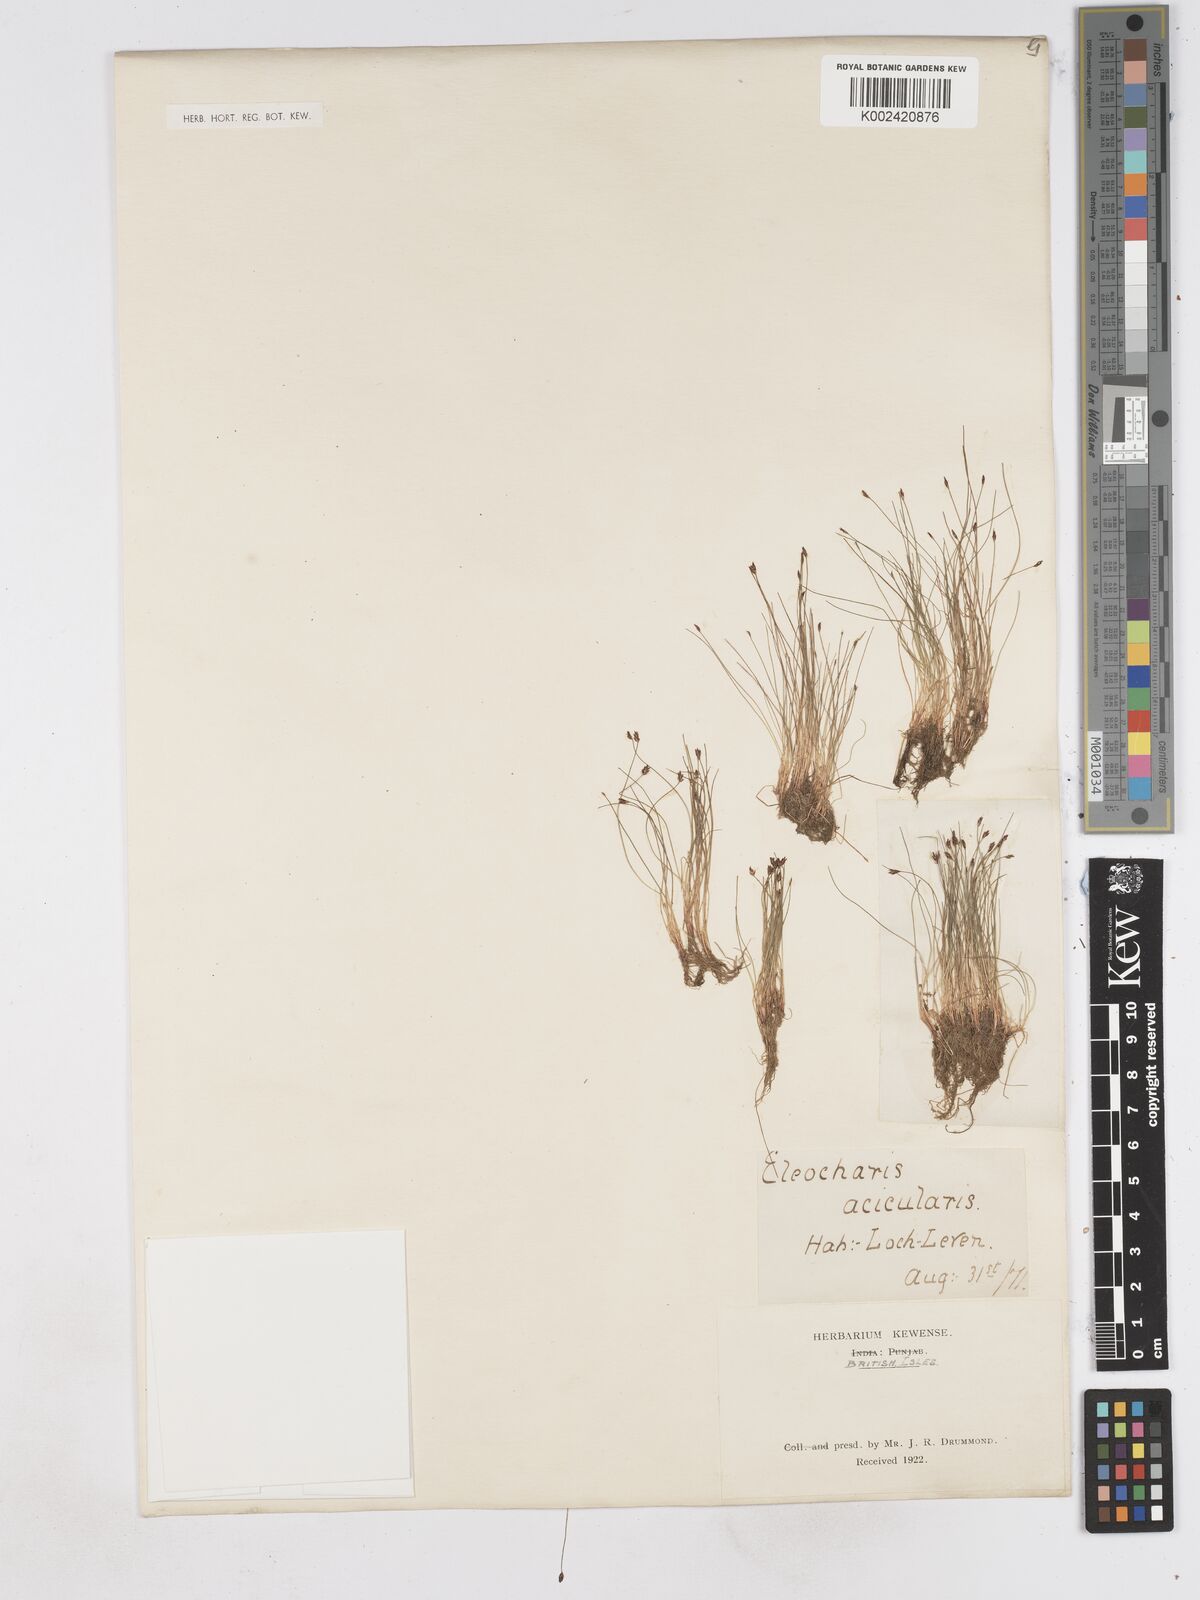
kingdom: Plantae
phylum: Tracheophyta
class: Liliopsida
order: Poales
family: Cyperaceae
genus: Eleocharis
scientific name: Eleocharis acicularis
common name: Needle spike-rush
